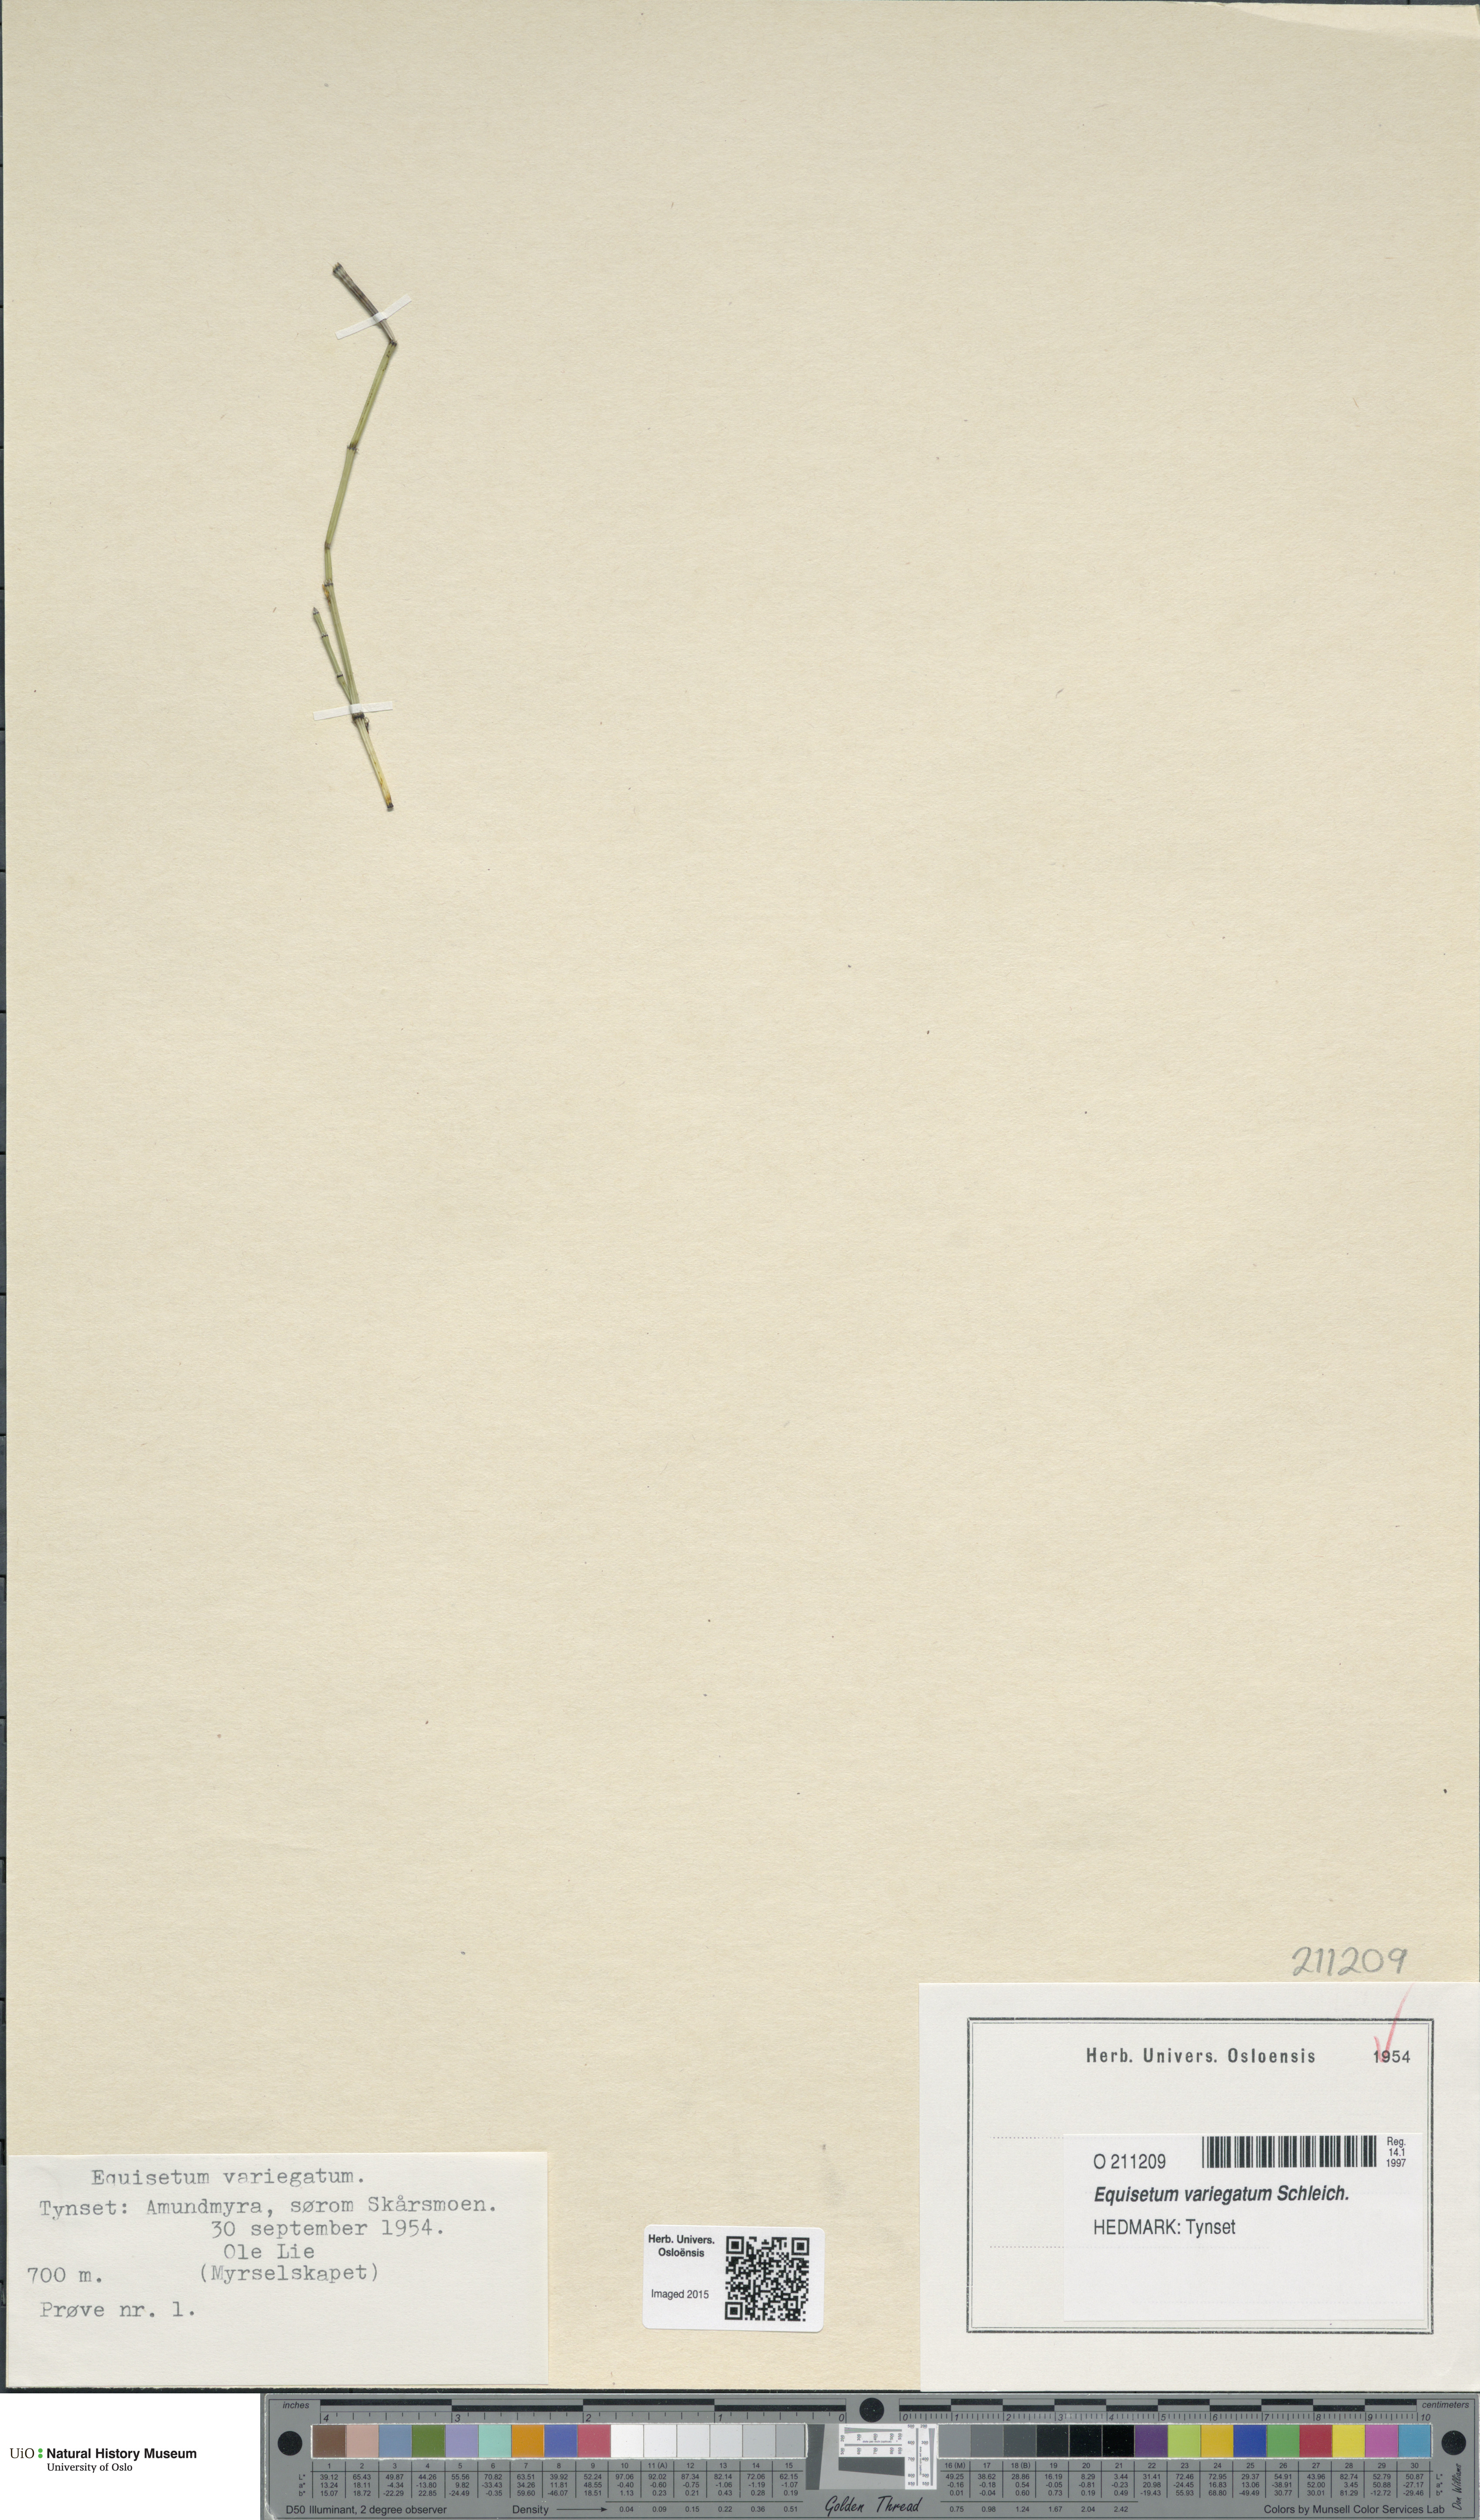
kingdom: Plantae
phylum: Tracheophyta
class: Polypodiopsida
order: Equisetales
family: Equisetaceae
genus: Equisetum
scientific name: Equisetum variegatum
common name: Variegated horsetail
